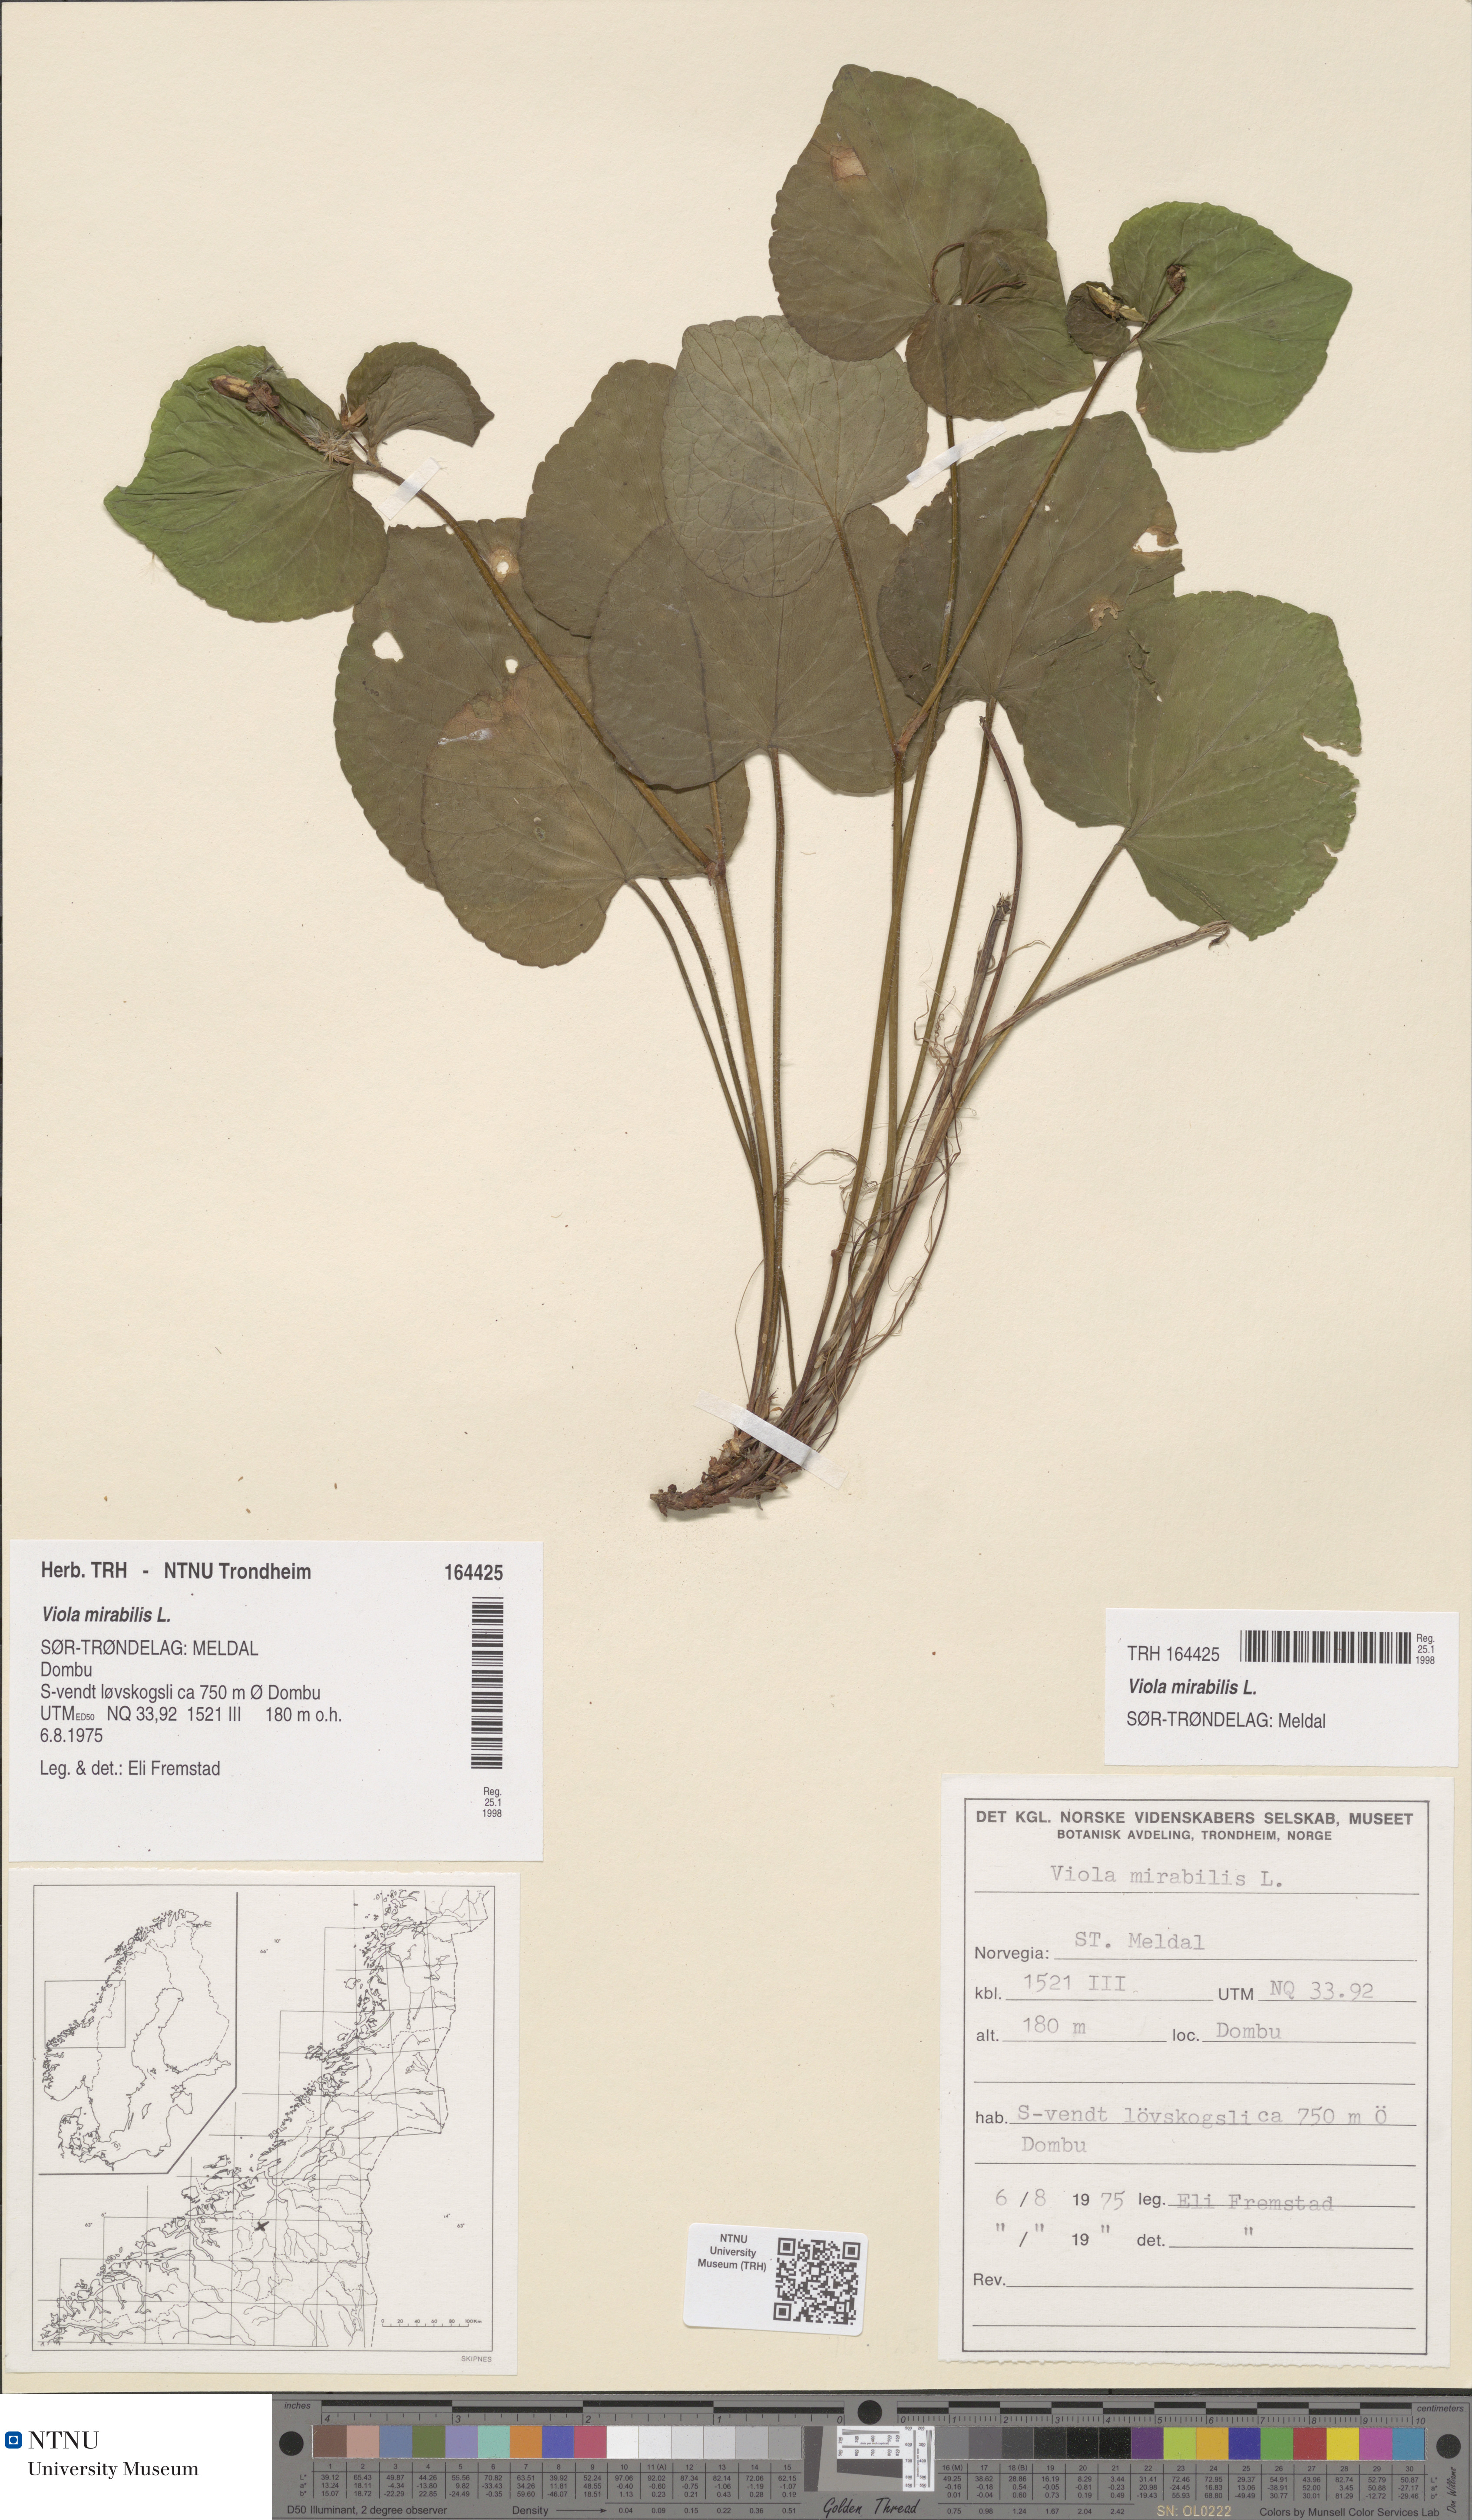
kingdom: Plantae
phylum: Tracheophyta
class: Magnoliopsida
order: Malpighiales
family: Violaceae
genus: Viola
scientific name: Viola mirabilis
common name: Wonder violet
